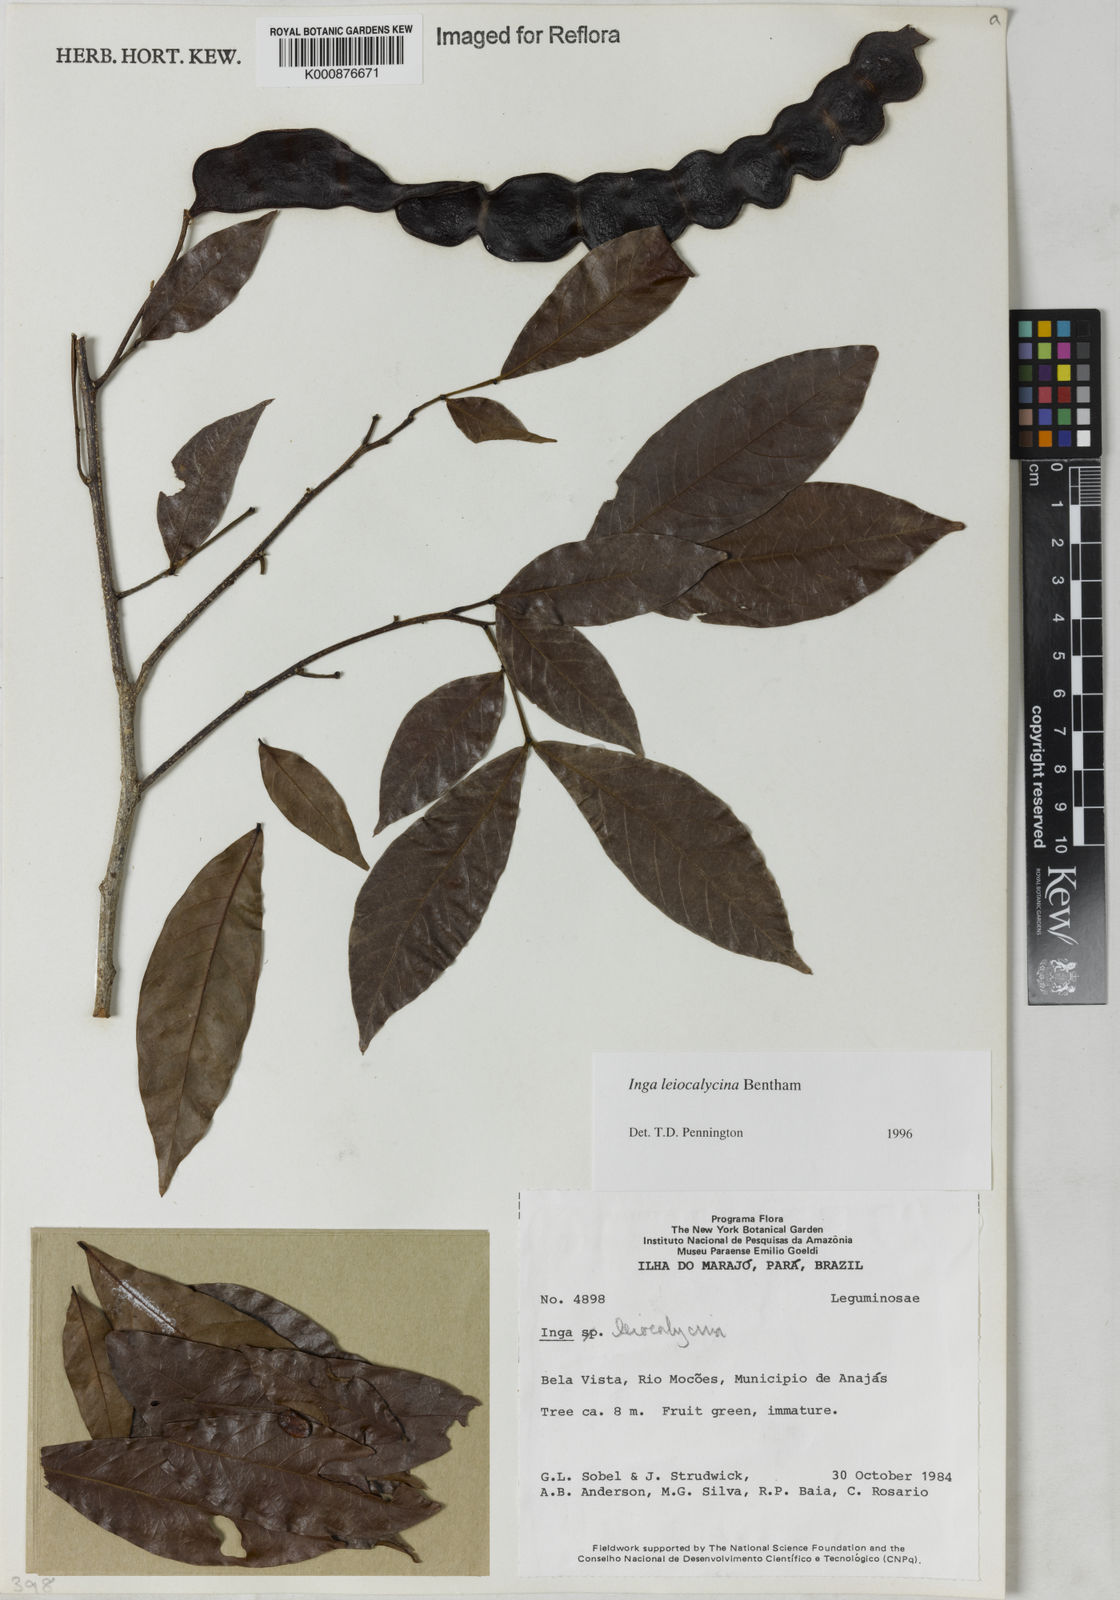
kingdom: Plantae
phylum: Tracheophyta
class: Magnoliopsida
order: Fabales
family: Fabaceae
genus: Inga
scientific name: Inga laevigata
